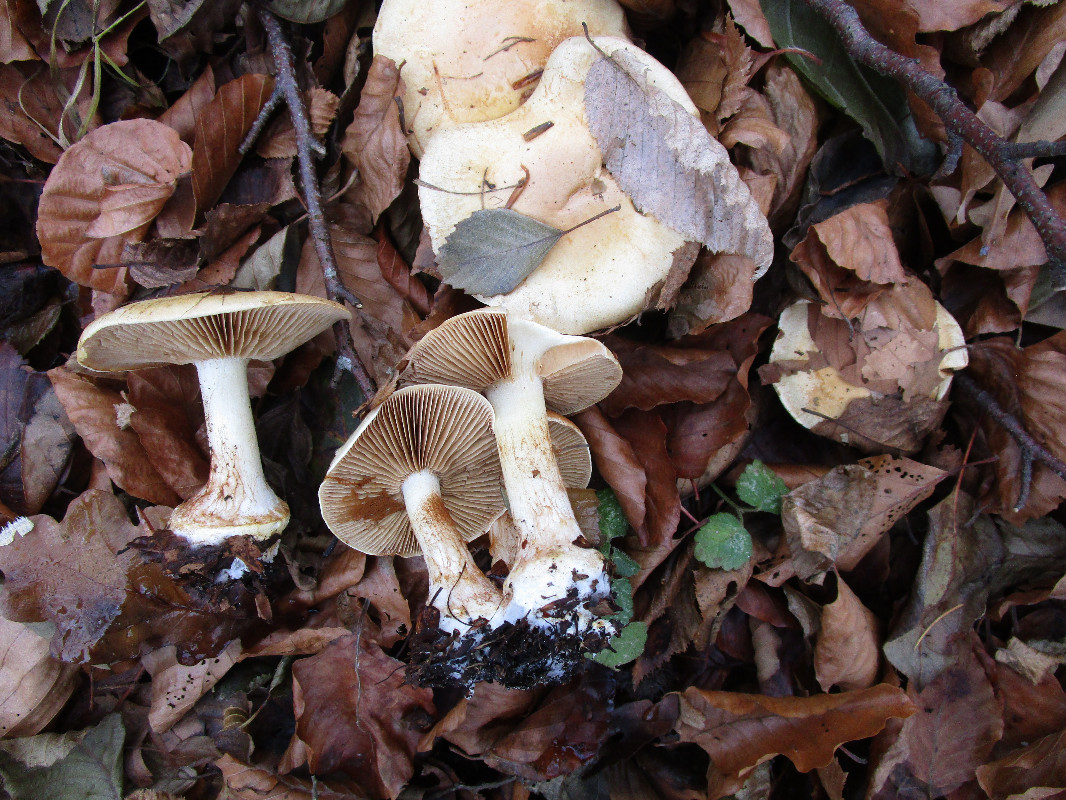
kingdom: Fungi
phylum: Basidiomycota
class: Agaricomycetes
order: Agaricales
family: Cortinariaceae
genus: Phlegmacium
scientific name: Phlegmacium rhizophorum
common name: finkornet slørhat
